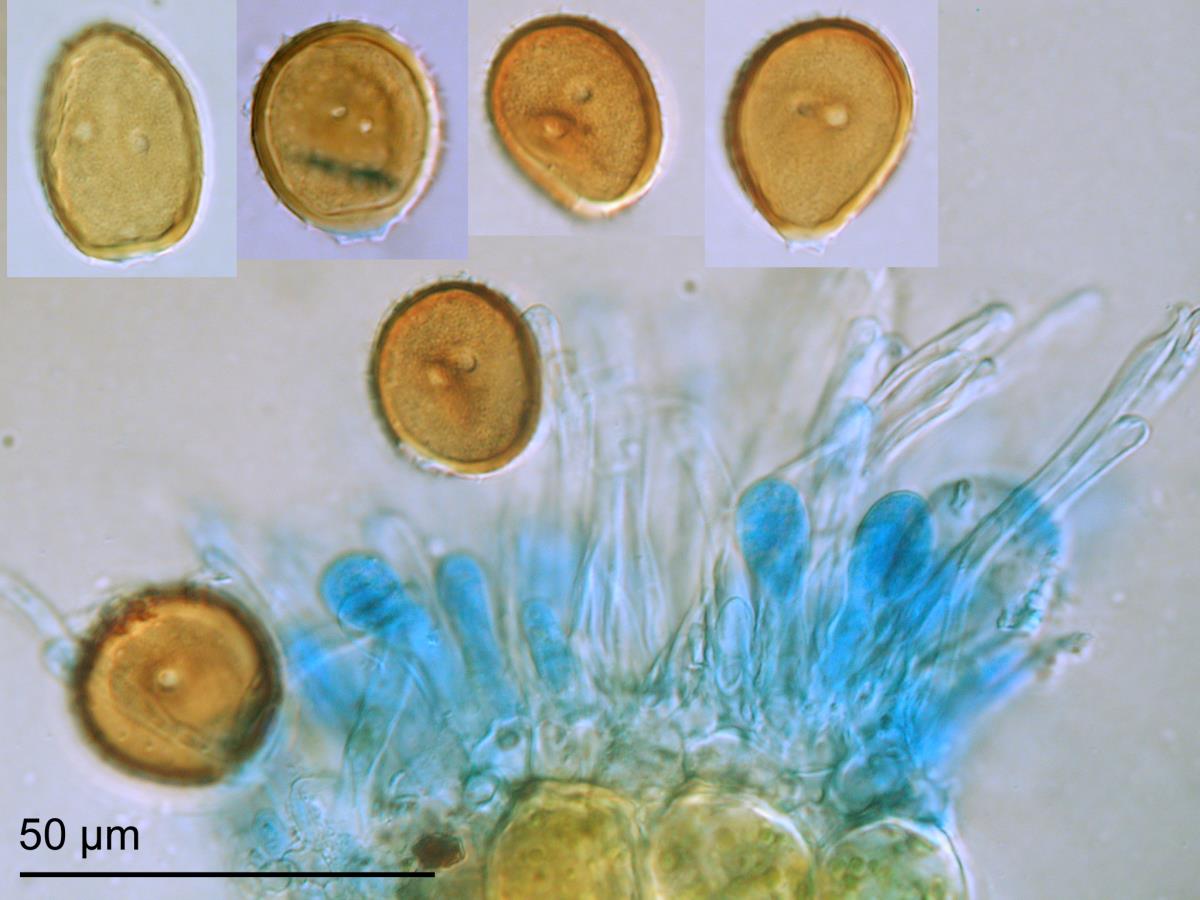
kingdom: Fungi
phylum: Basidiomycota
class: Pucciniomycetes
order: Pucciniales
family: Pucciniaceae
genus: Puccinia
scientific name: Puccinia unciniarum
